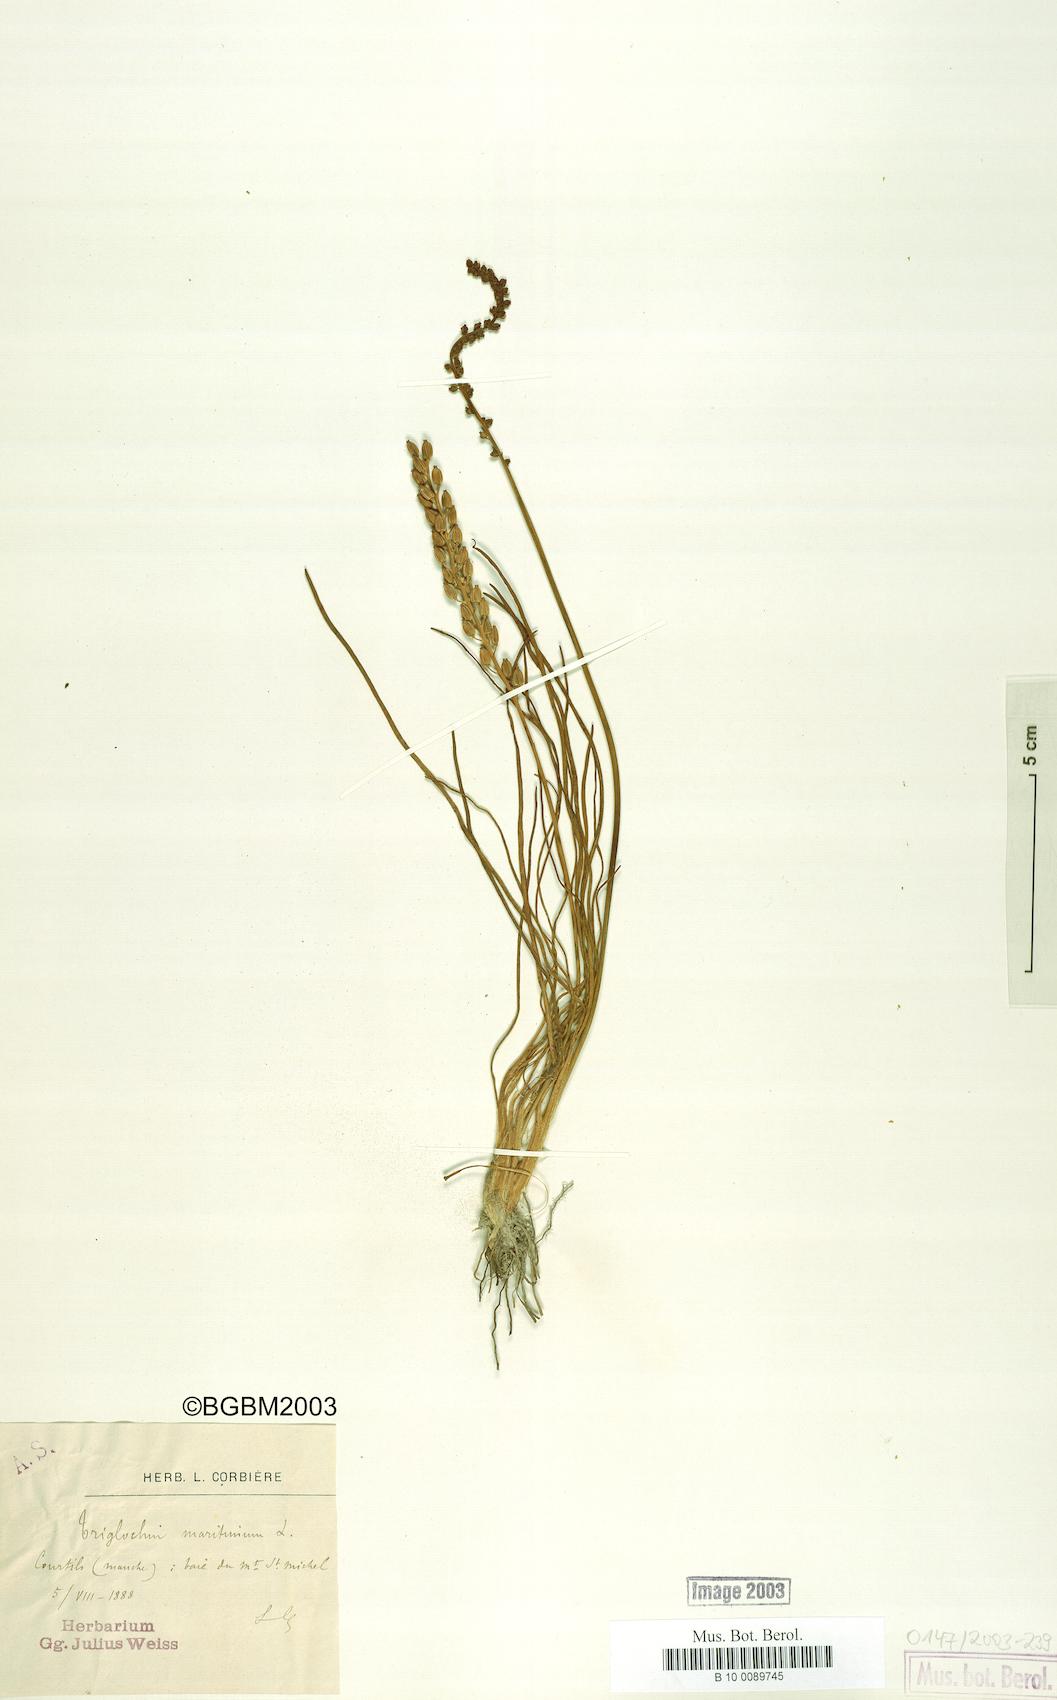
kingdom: Plantae
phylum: Tracheophyta
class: Liliopsida
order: Alismatales
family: Juncaginaceae
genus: Triglochin
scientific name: Triglochin maritima
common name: Sea arrowgrass
